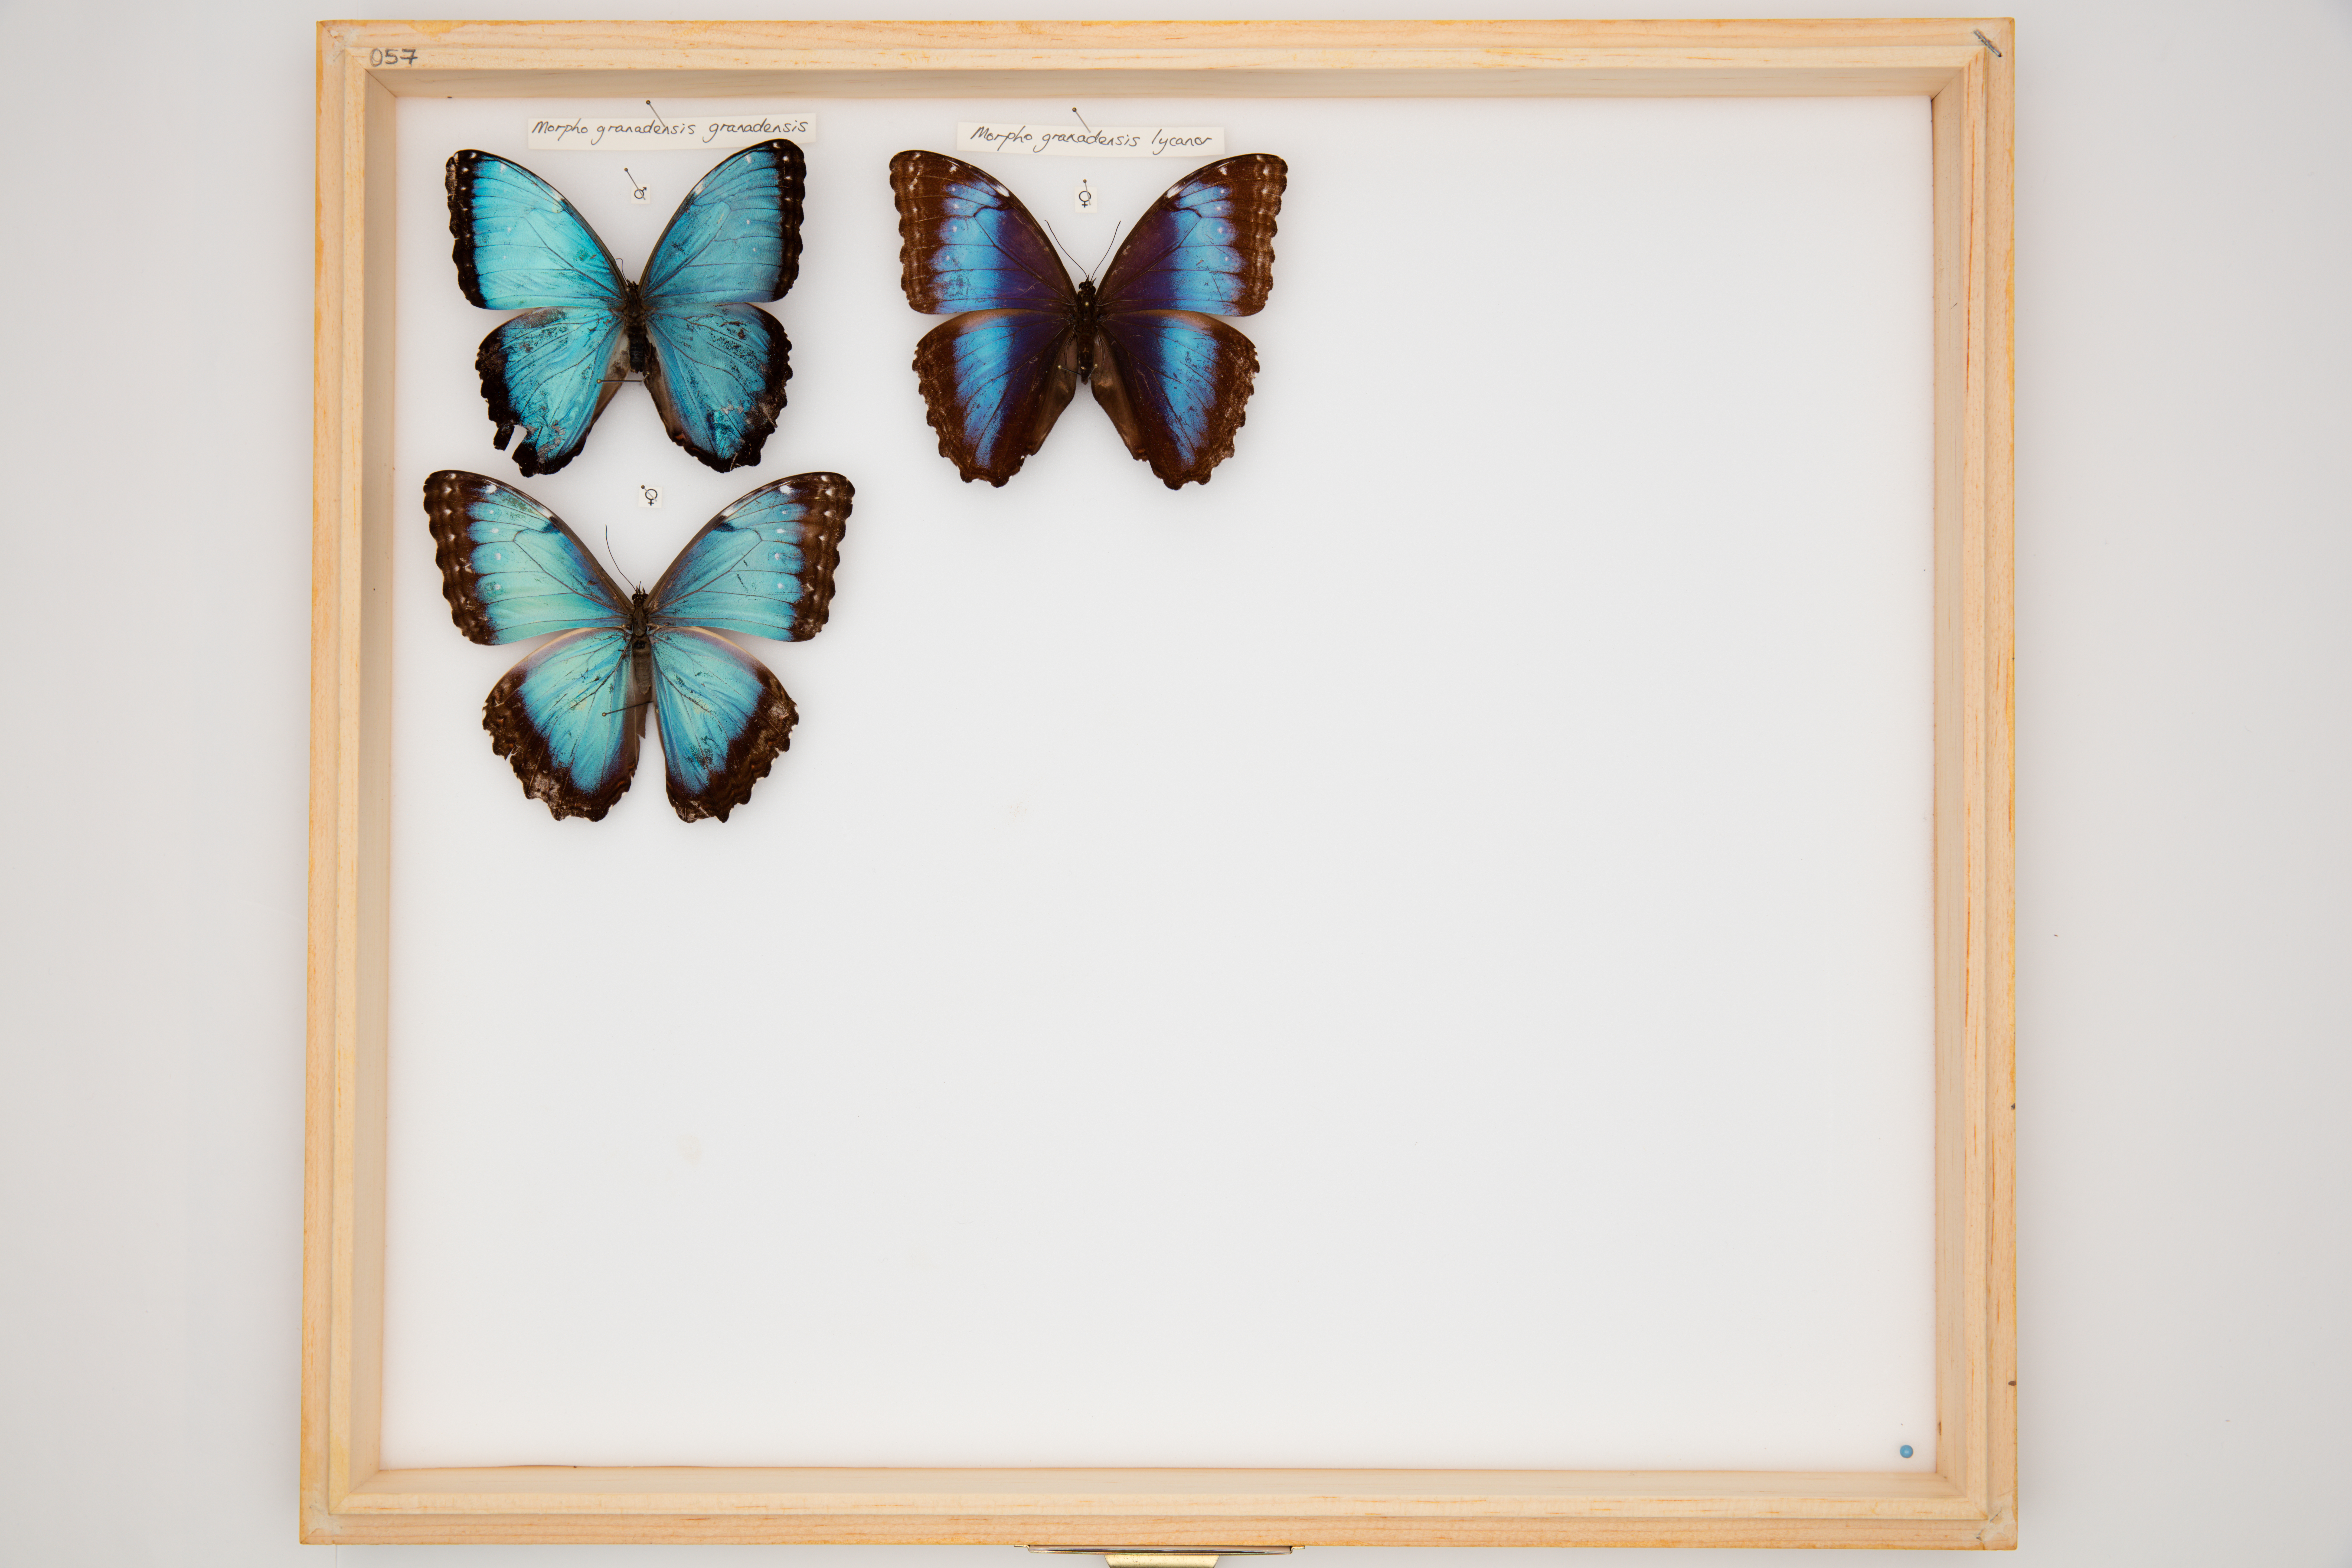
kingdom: Animalia
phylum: Arthropoda
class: Insecta
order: Lepidoptera
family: Nymphalidae
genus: Morpho
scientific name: Morpho granadensis
